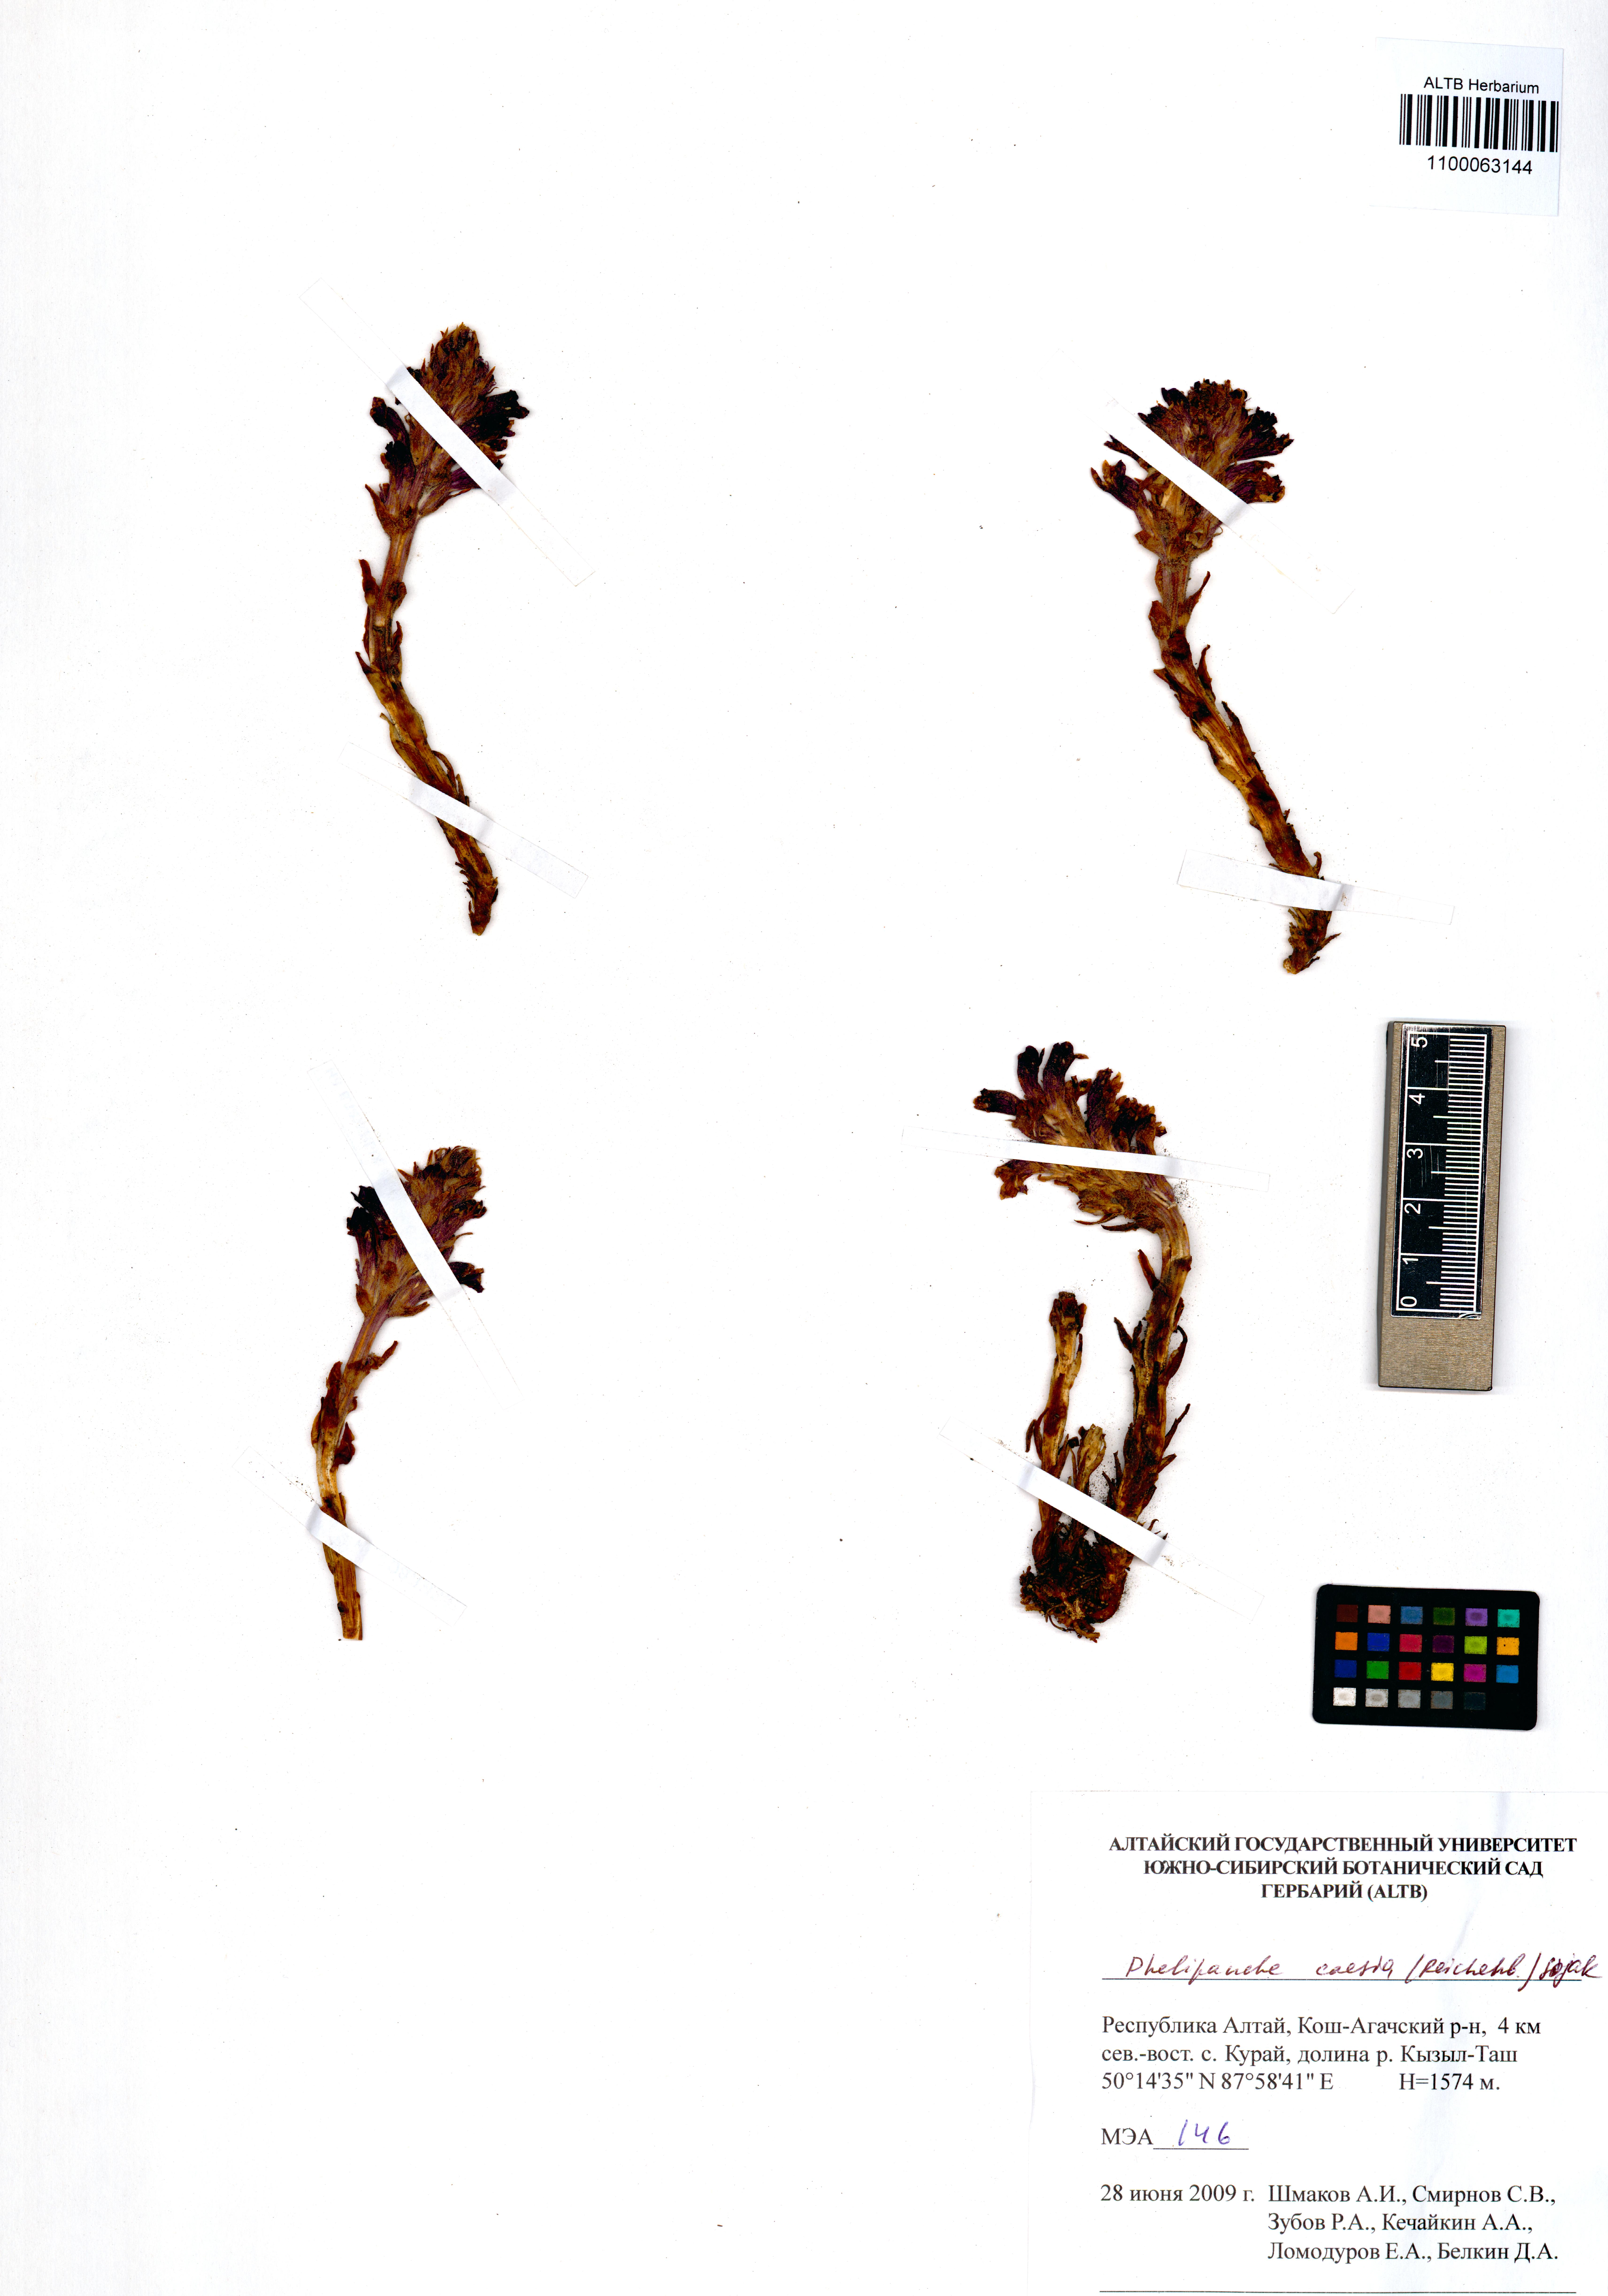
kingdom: Plantae
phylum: Tracheophyta
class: Magnoliopsida
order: Lamiales
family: Orobanchaceae
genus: Phelipanche
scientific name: Phelipanche caesia
